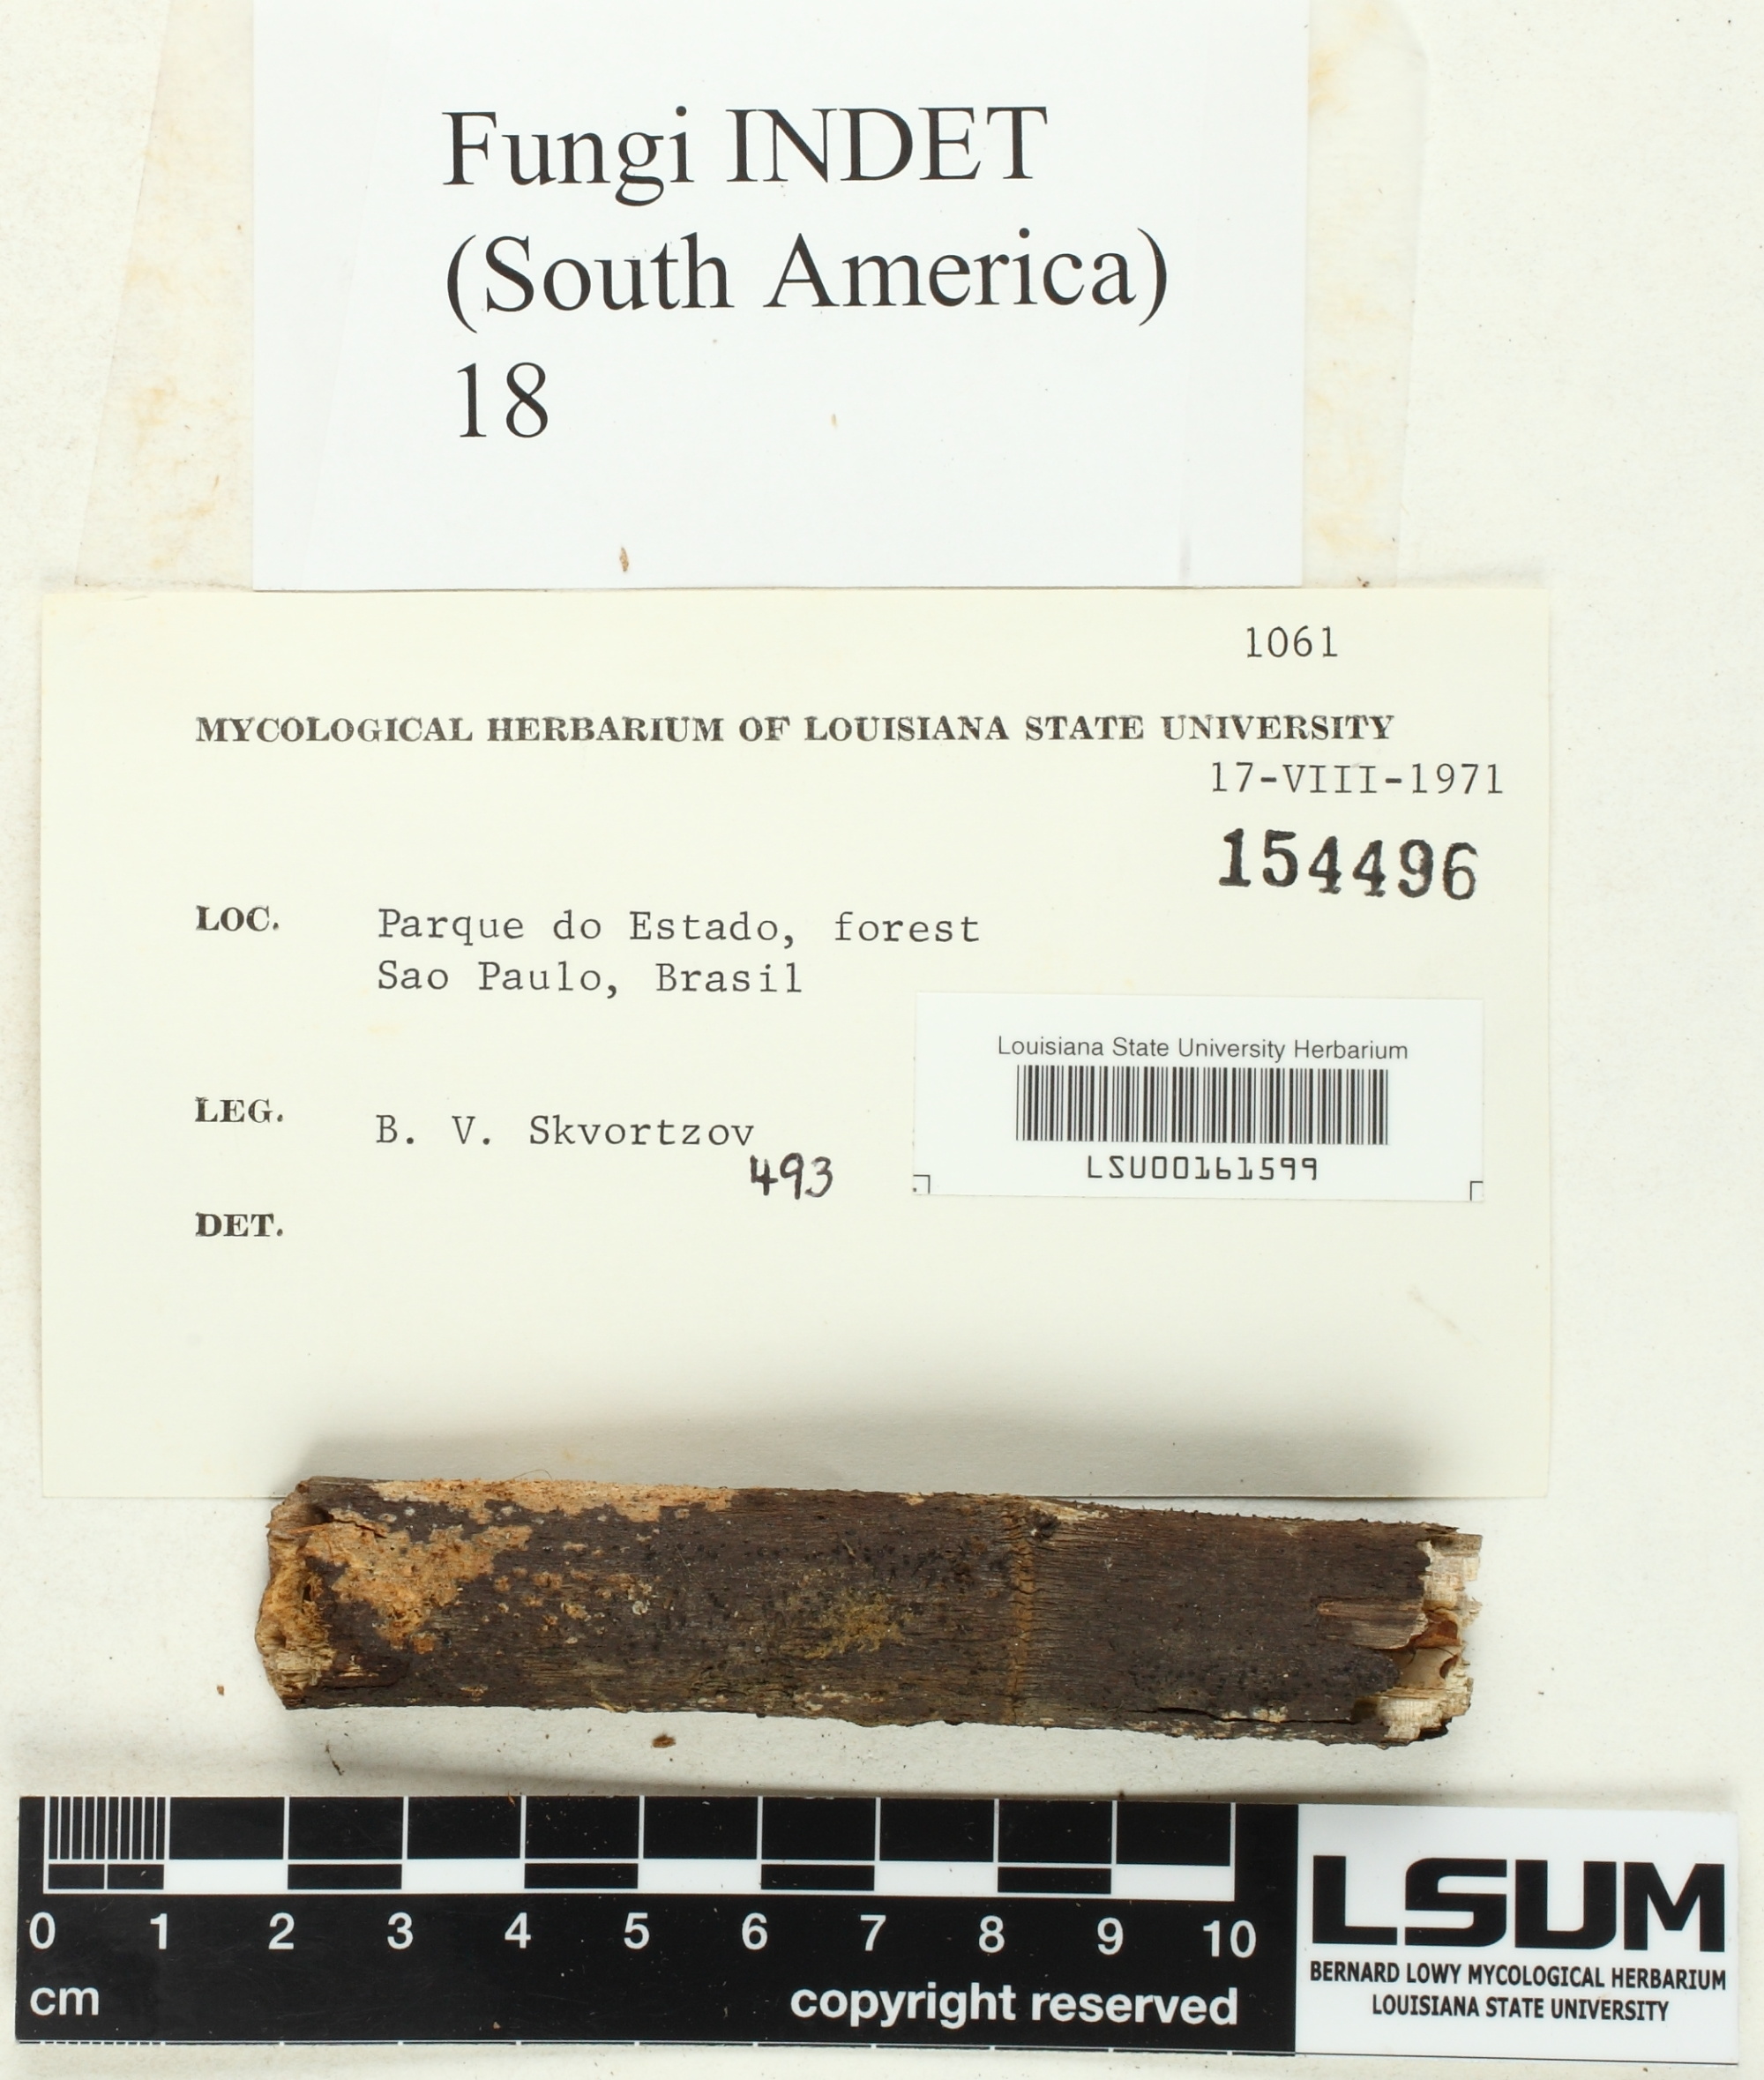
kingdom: Fungi
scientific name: Fungi
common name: Fungi
